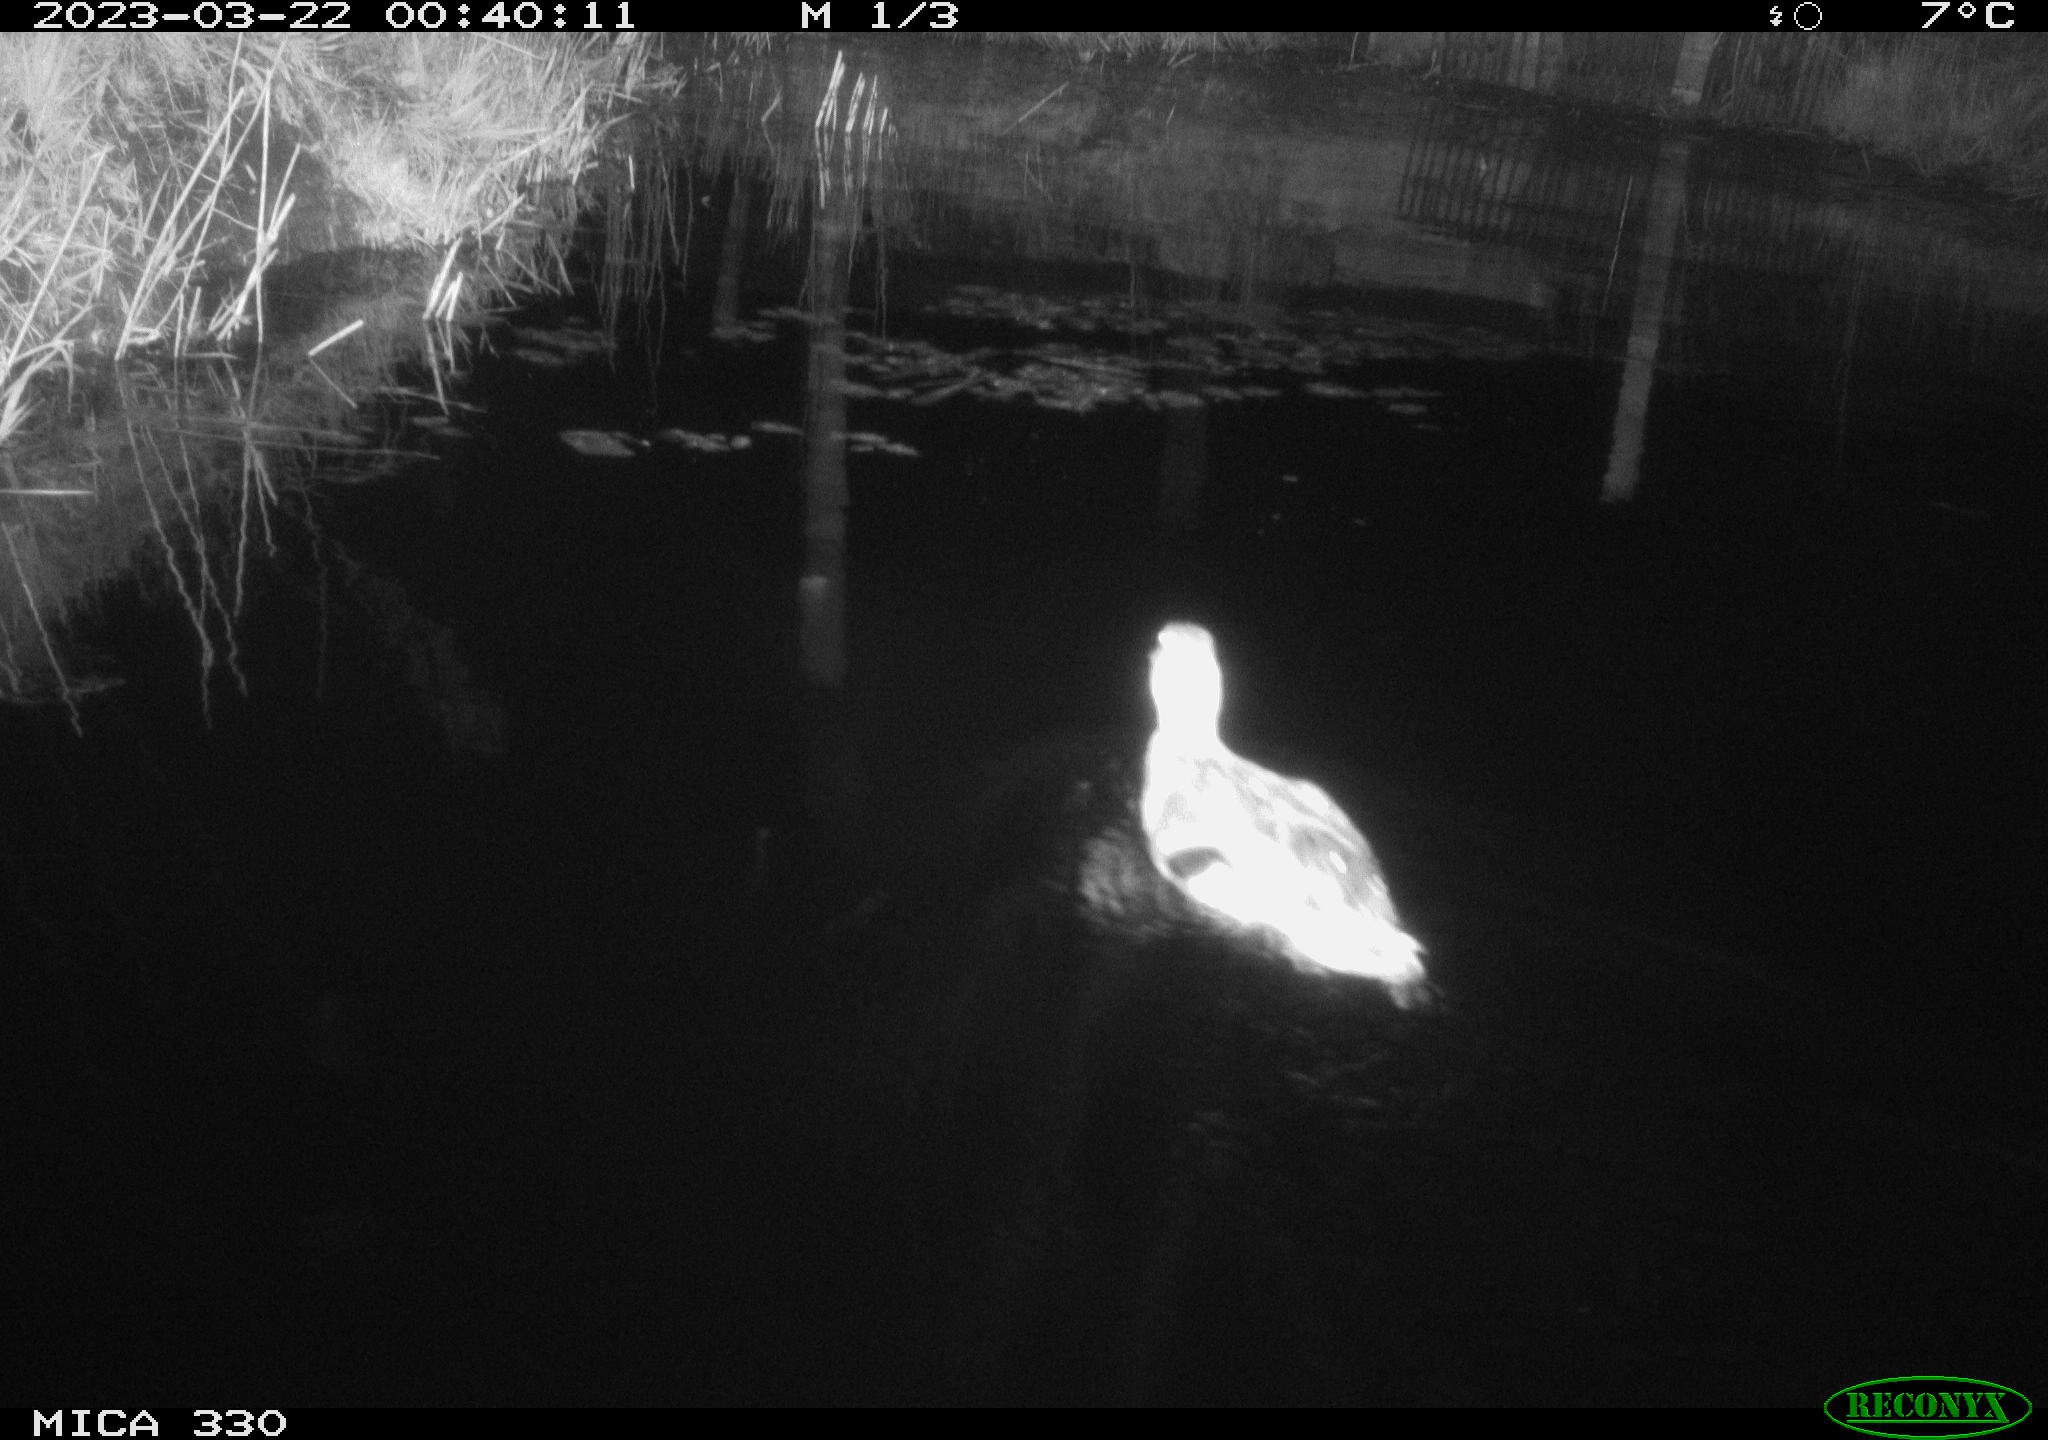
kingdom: Animalia
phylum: Chordata
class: Aves
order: Anseriformes
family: Anatidae
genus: Anas
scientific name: Anas
